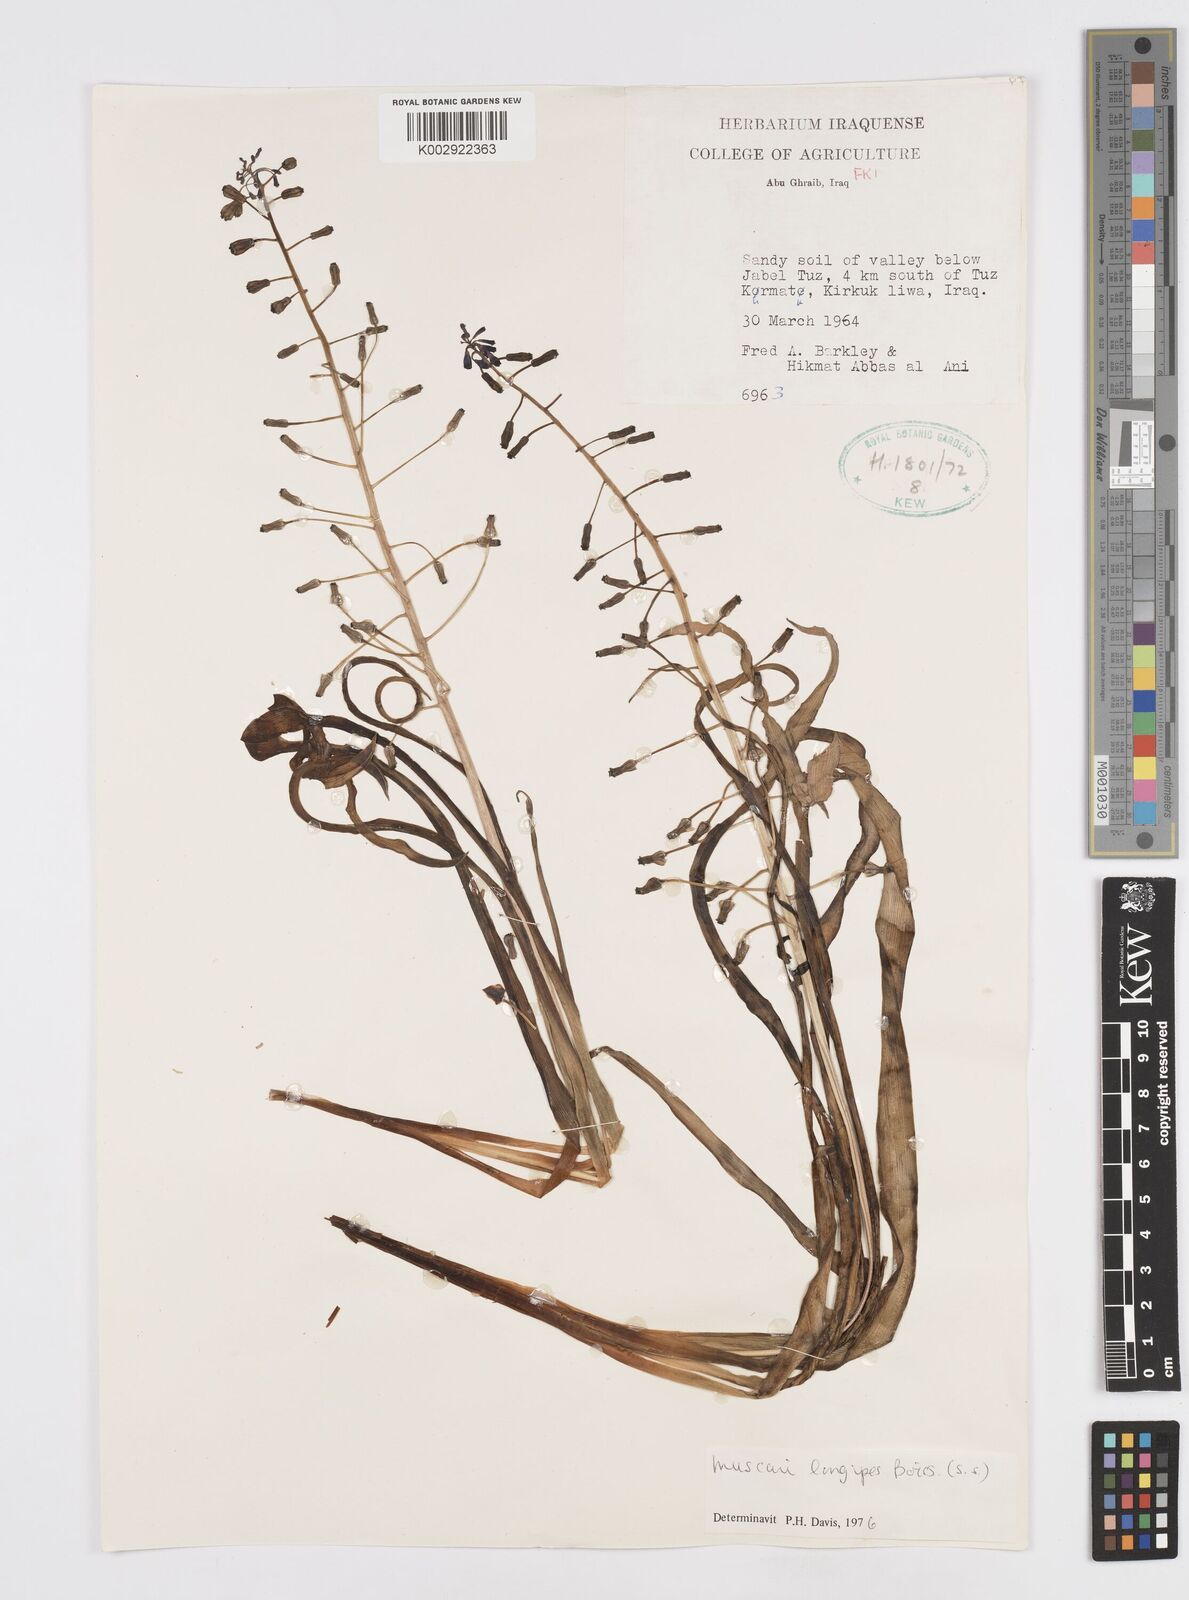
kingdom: Plantae
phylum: Tracheophyta
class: Liliopsida
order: Asparagales
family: Asparagaceae
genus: Muscari
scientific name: Muscari longipes
